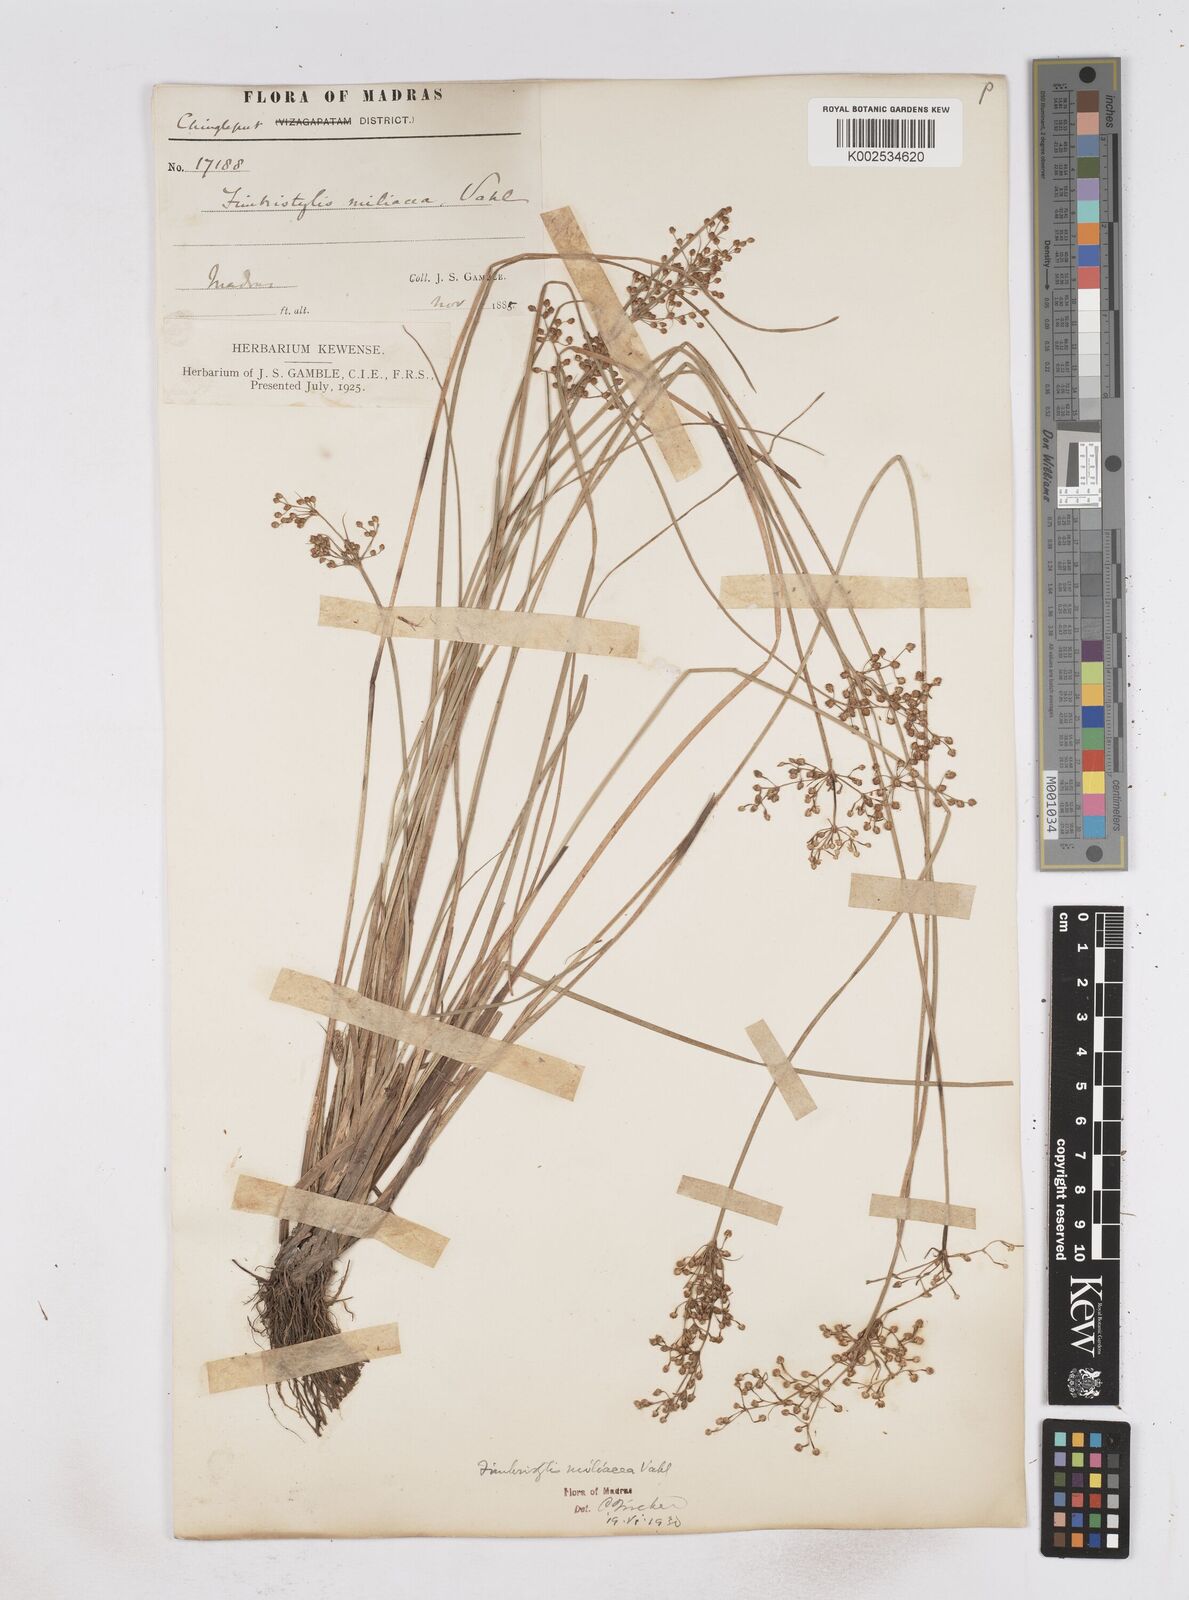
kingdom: Plantae
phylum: Tracheophyta
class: Liliopsida
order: Poales
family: Cyperaceae
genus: Fimbristylis
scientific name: Fimbristylis littoralis
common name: Fimbry
